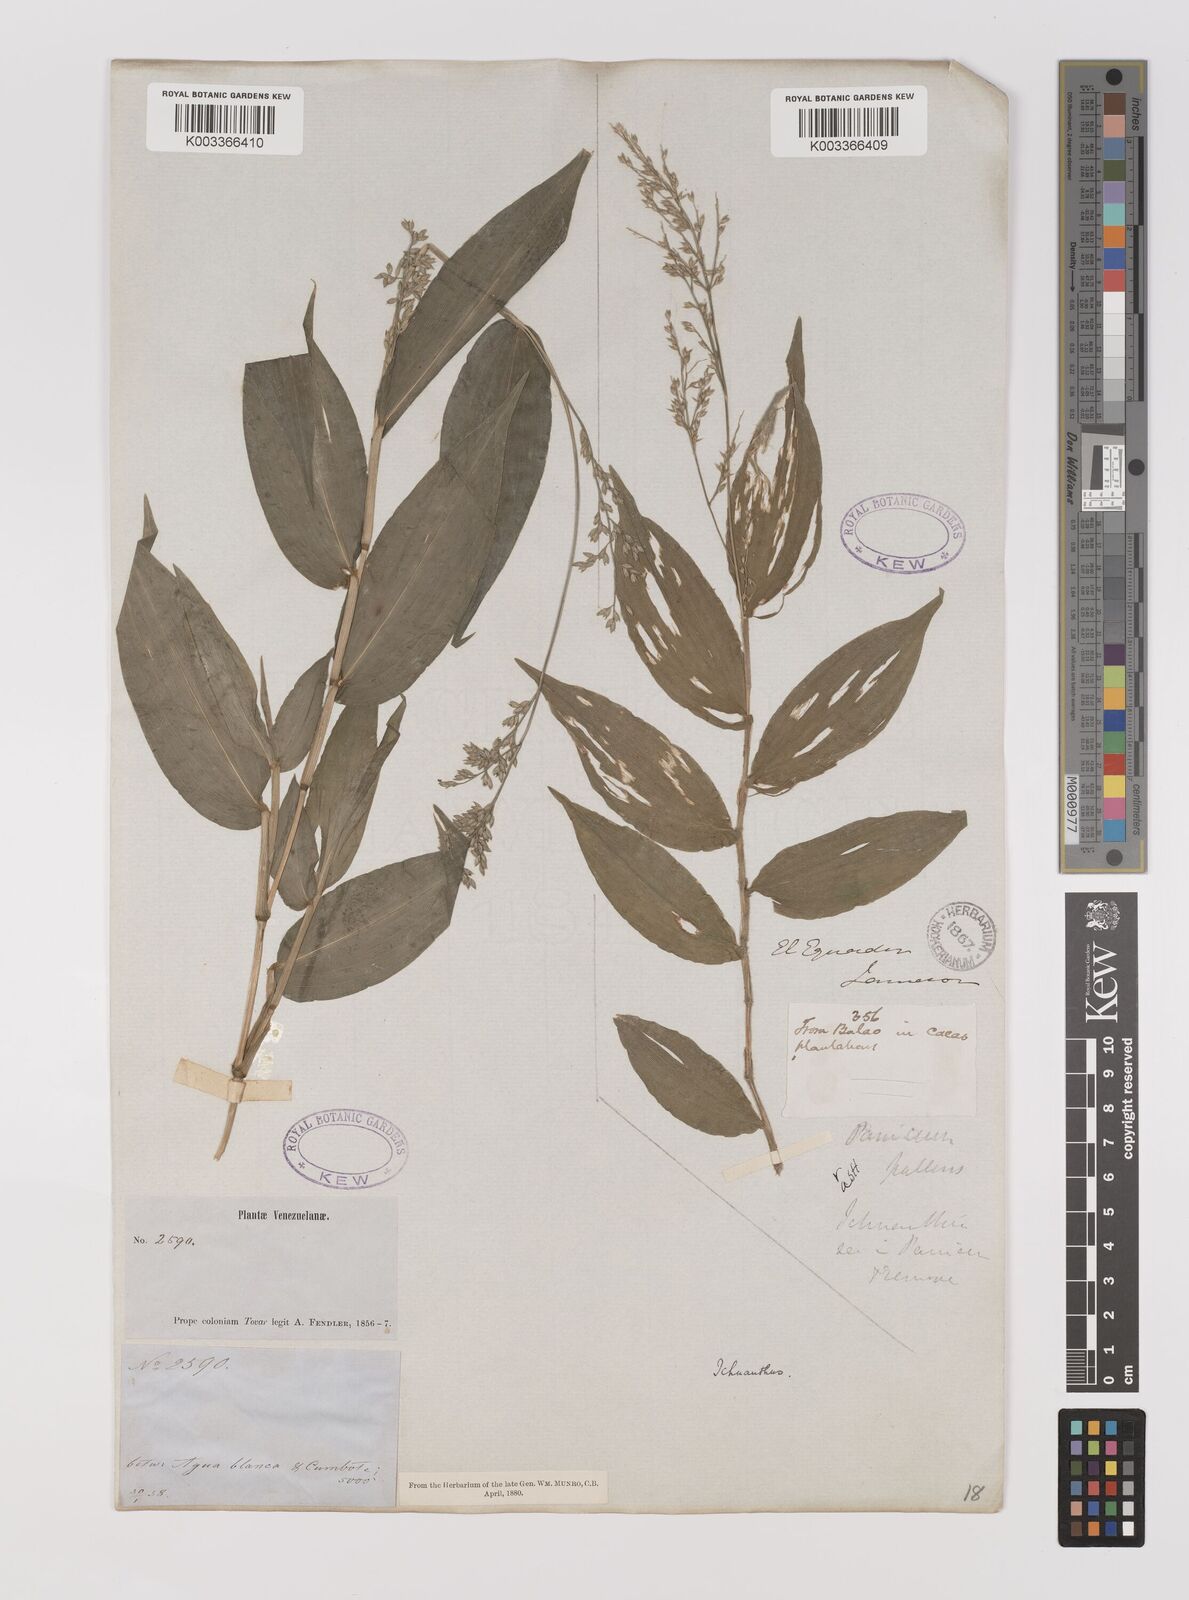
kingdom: Plantae
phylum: Tracheophyta
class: Liliopsida
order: Poales
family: Poaceae
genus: Ichnanthus
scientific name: Ichnanthus pallens
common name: Water grass
